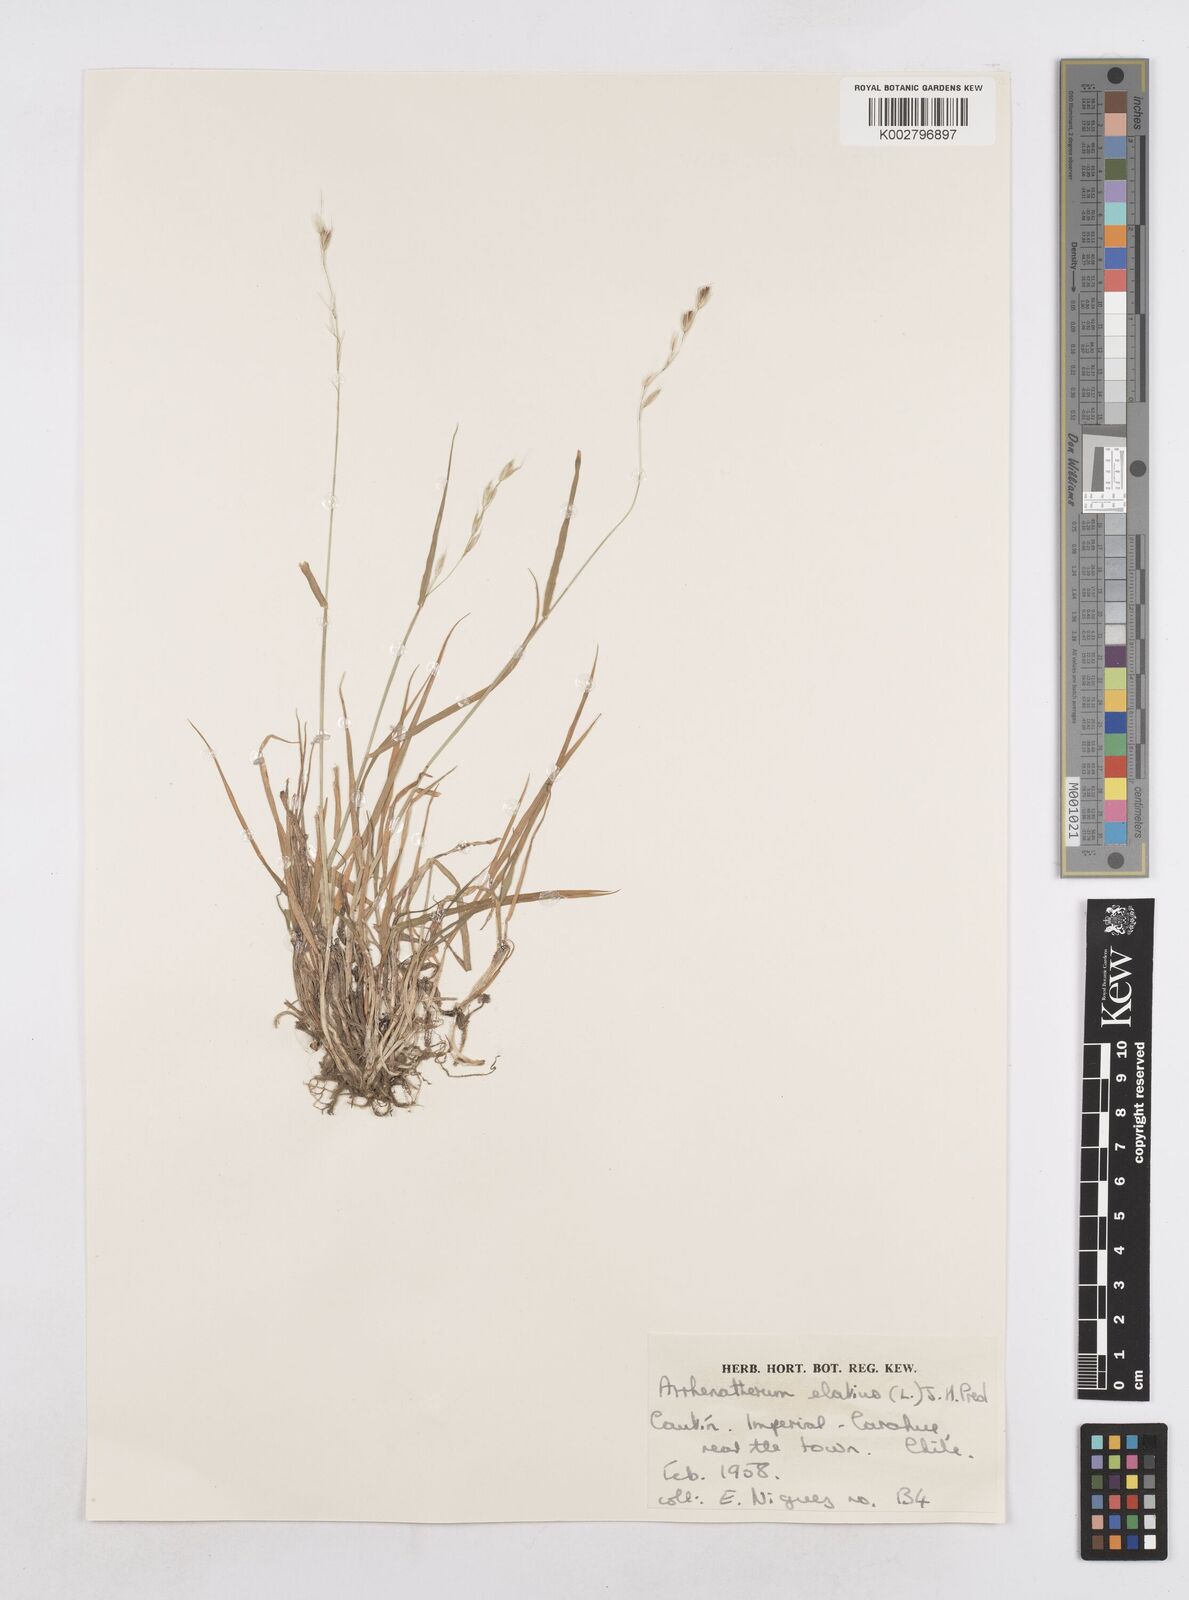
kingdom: Plantae
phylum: Tracheophyta
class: Liliopsida
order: Poales
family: Poaceae
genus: Arrhenatherum
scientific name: Arrhenatherum elatius
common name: Tall oatgrass
